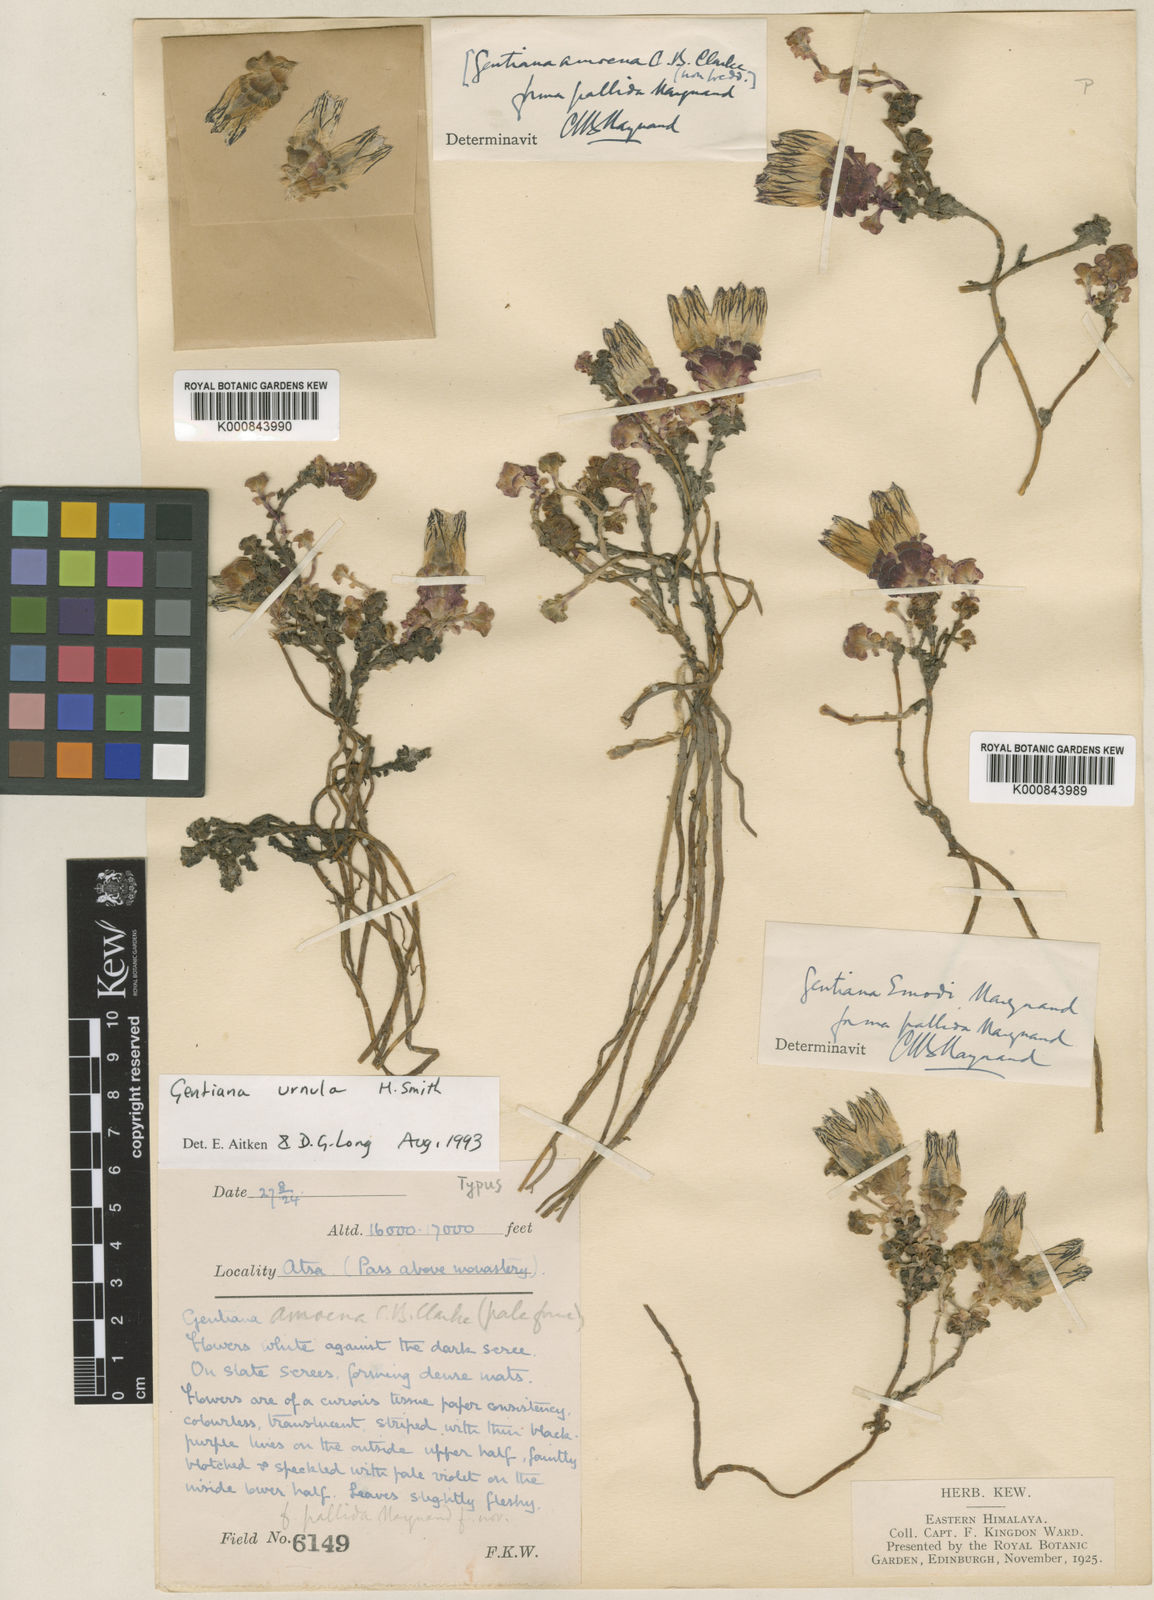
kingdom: Plantae
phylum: Tracheophyta
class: Magnoliopsida
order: Gentianales
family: Gentianaceae
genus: Gentiana
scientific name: Gentiana urnula
